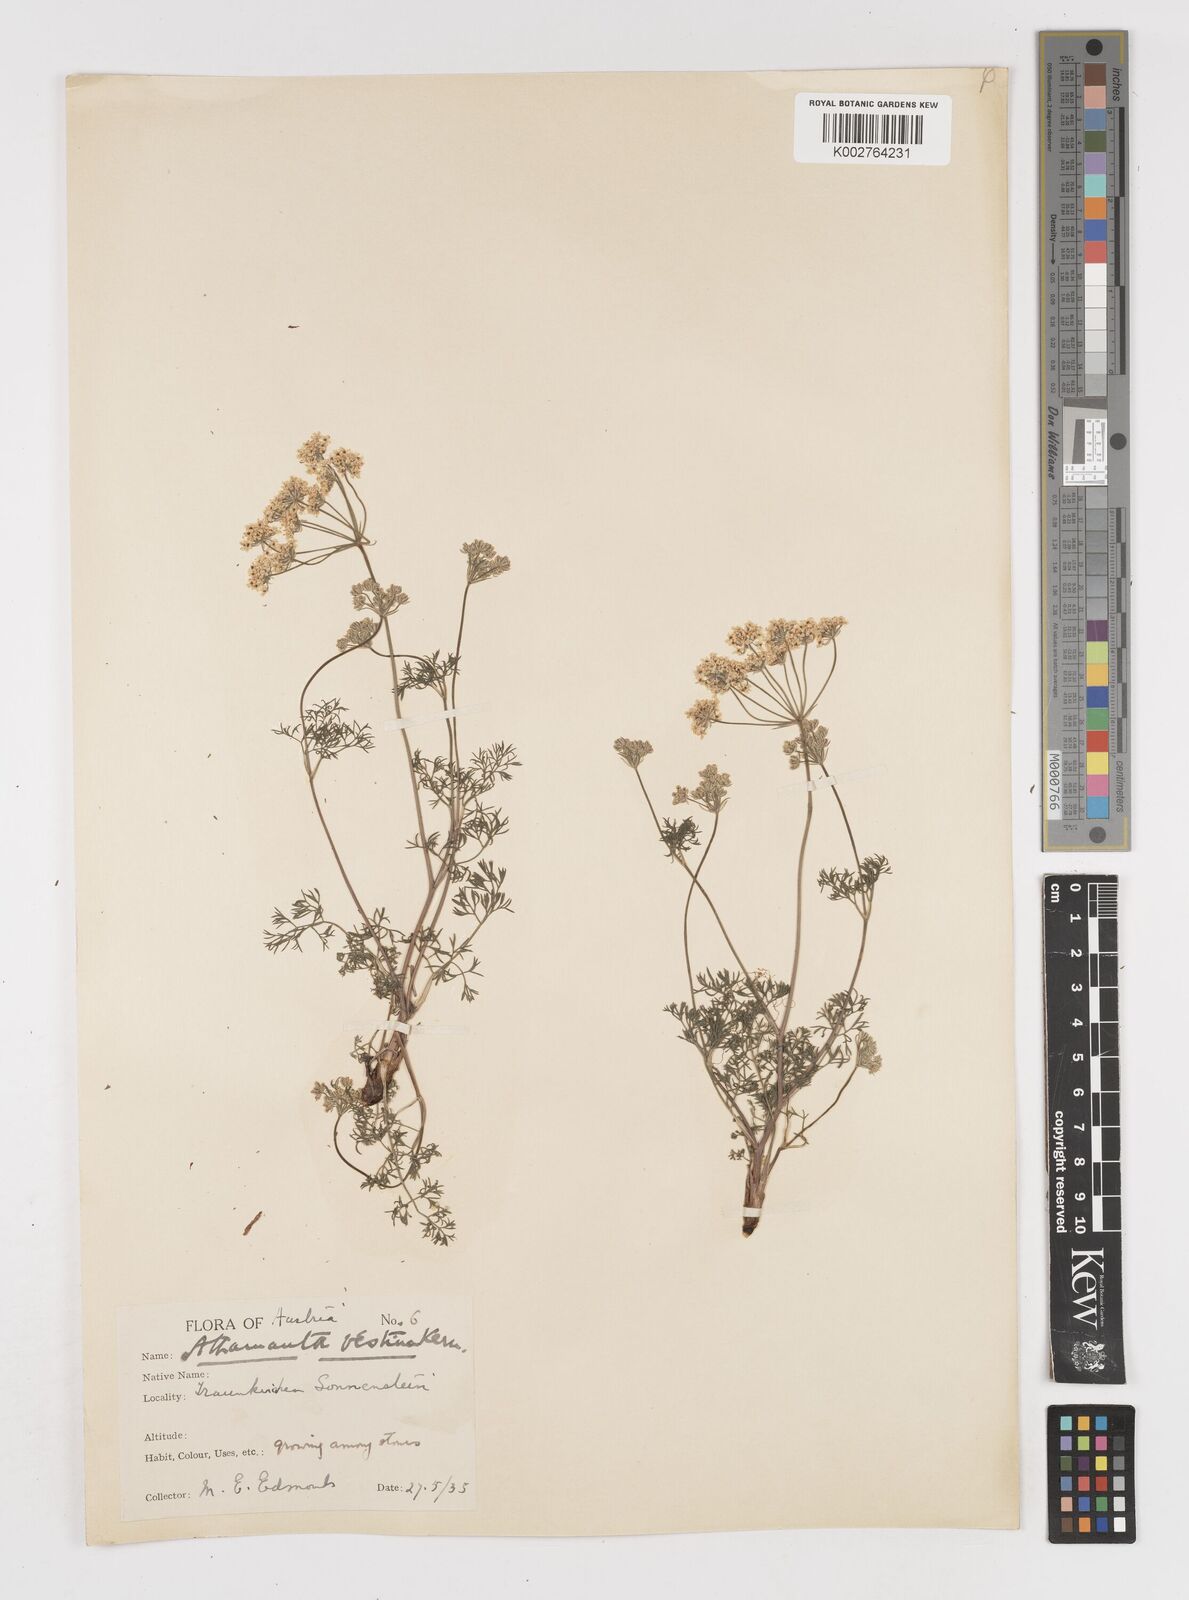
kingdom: Plantae
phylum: Tracheophyta
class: Magnoliopsida
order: Apiales
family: Apiaceae
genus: Athamanta
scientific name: Athamanta cretensis
